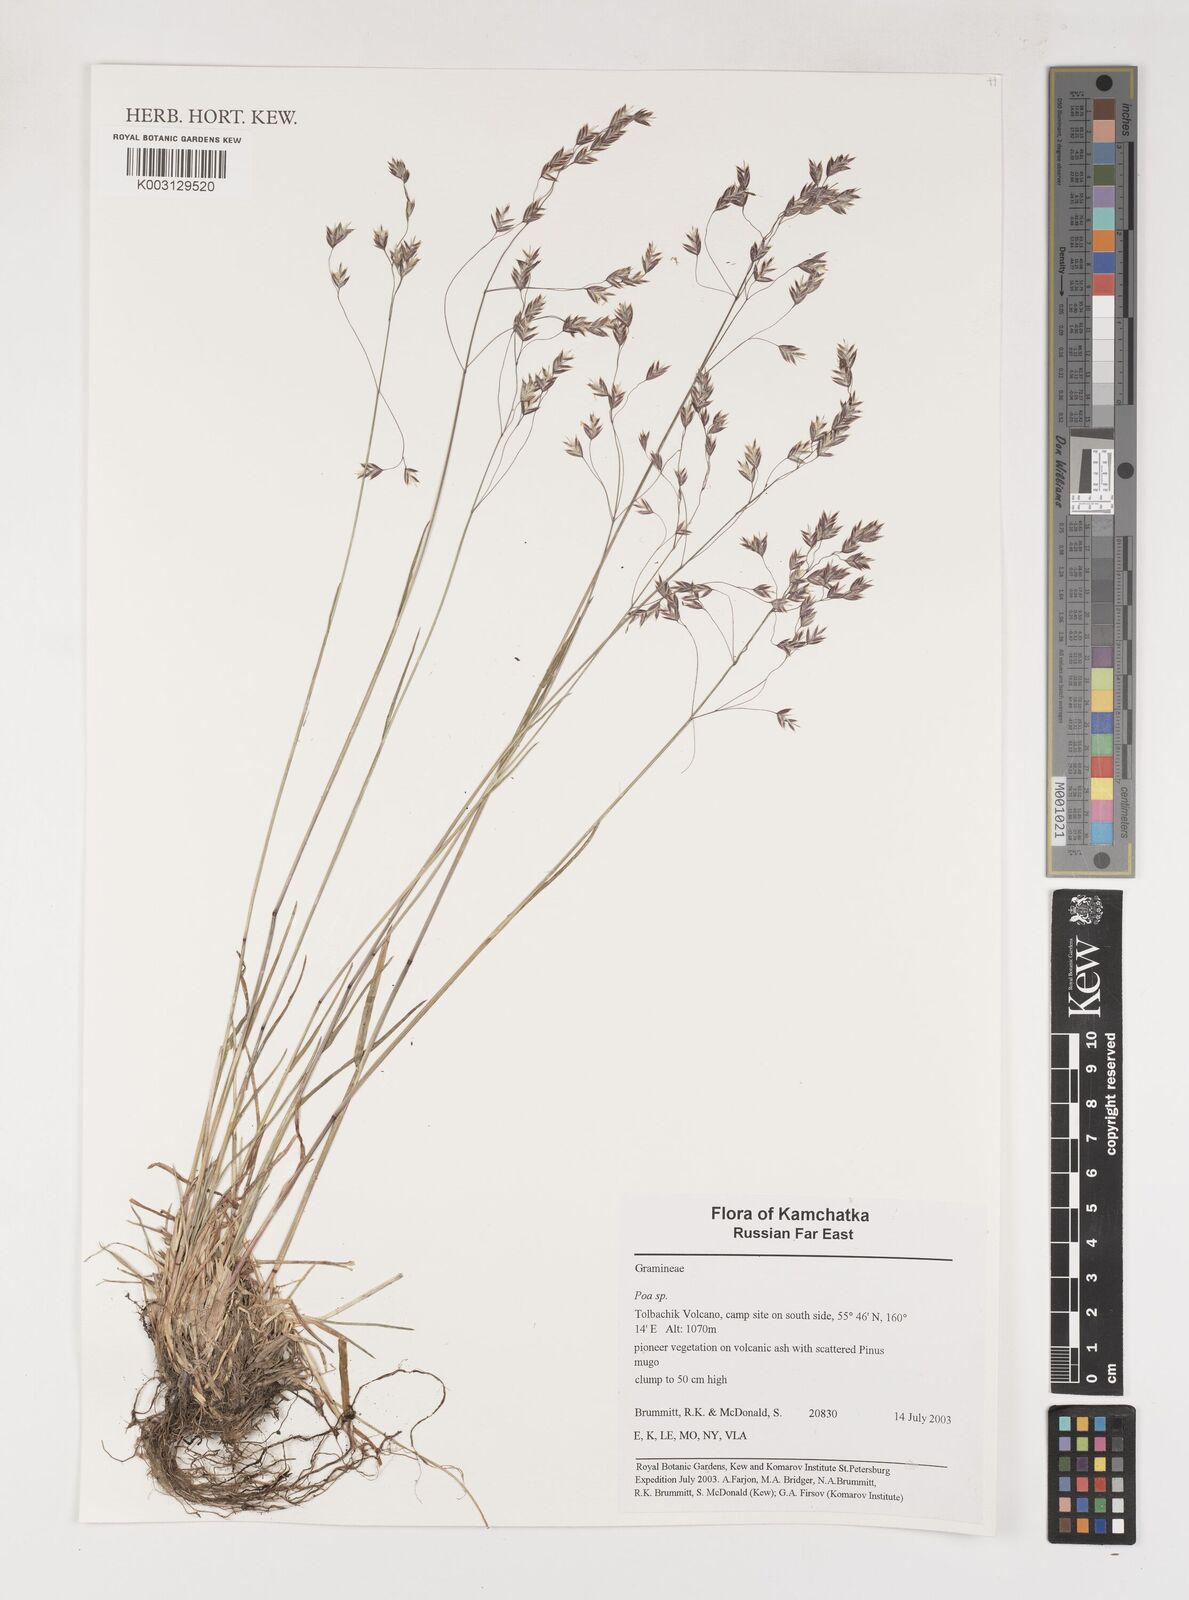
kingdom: Plantae
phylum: Tracheophyta
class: Liliopsida
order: Poales
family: Poaceae
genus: Poa
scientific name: Poa
